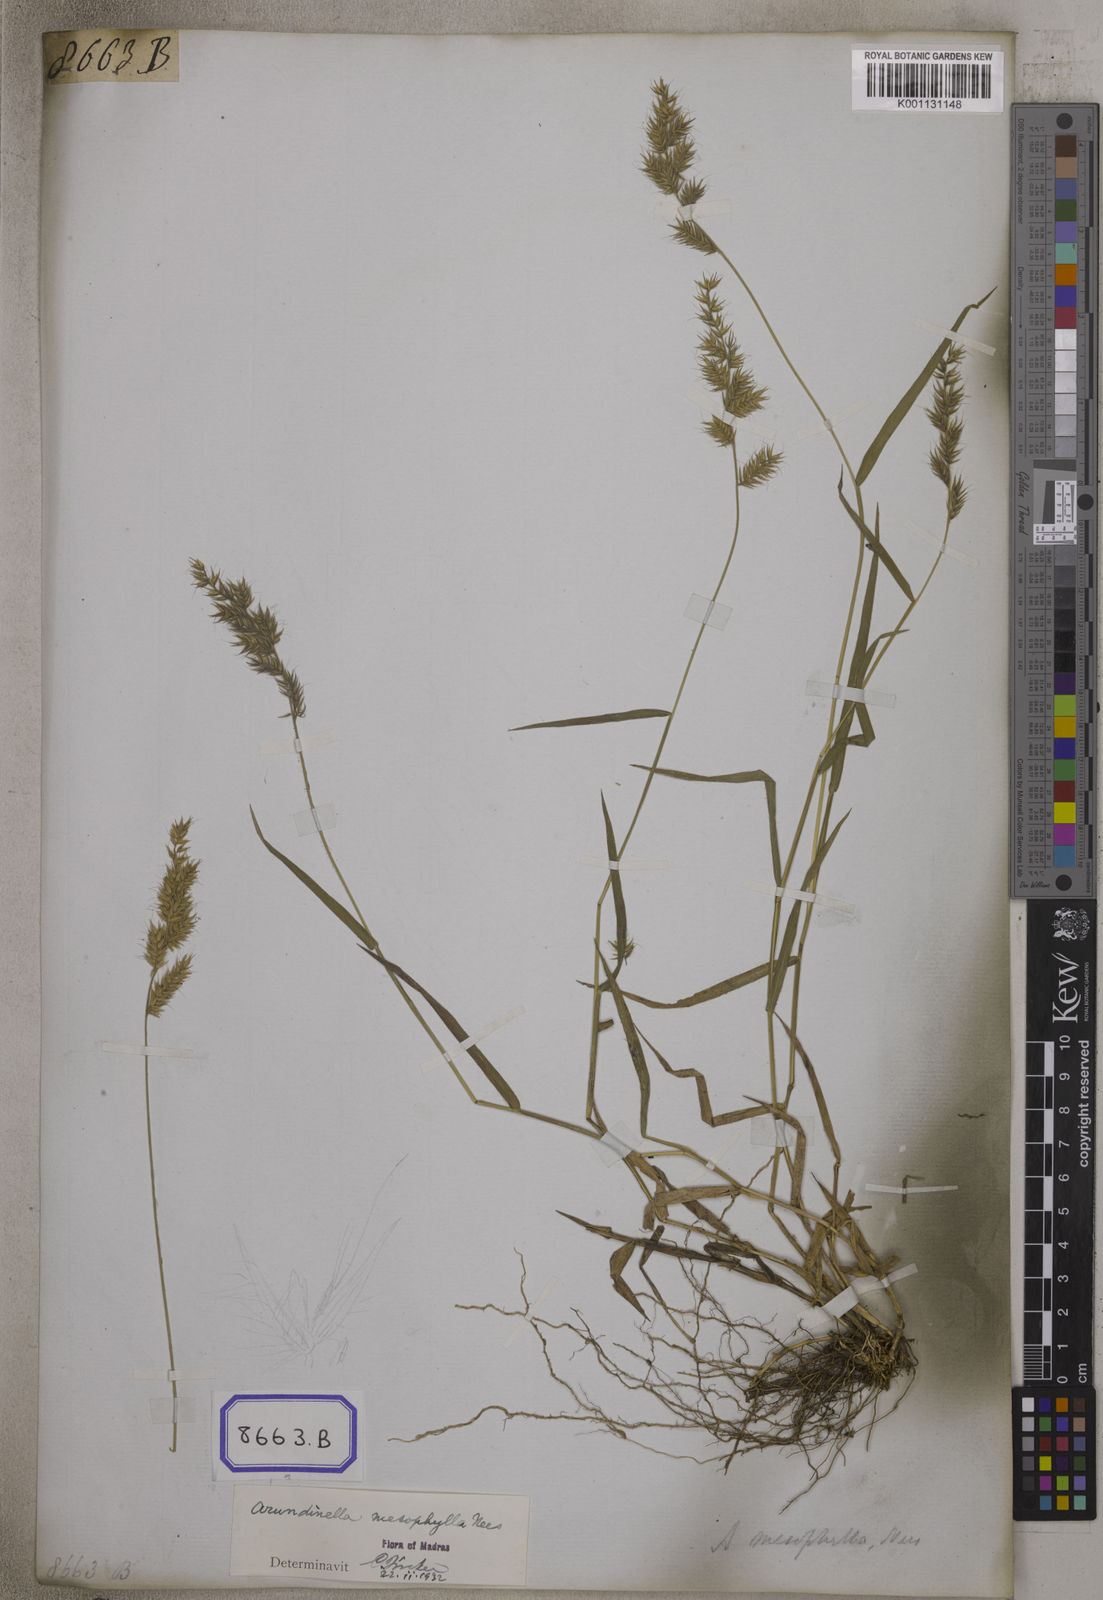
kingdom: Plantae
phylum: Tracheophyta
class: Liliopsida
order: Poales
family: Poaceae
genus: Arundinella
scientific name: Arundinella
